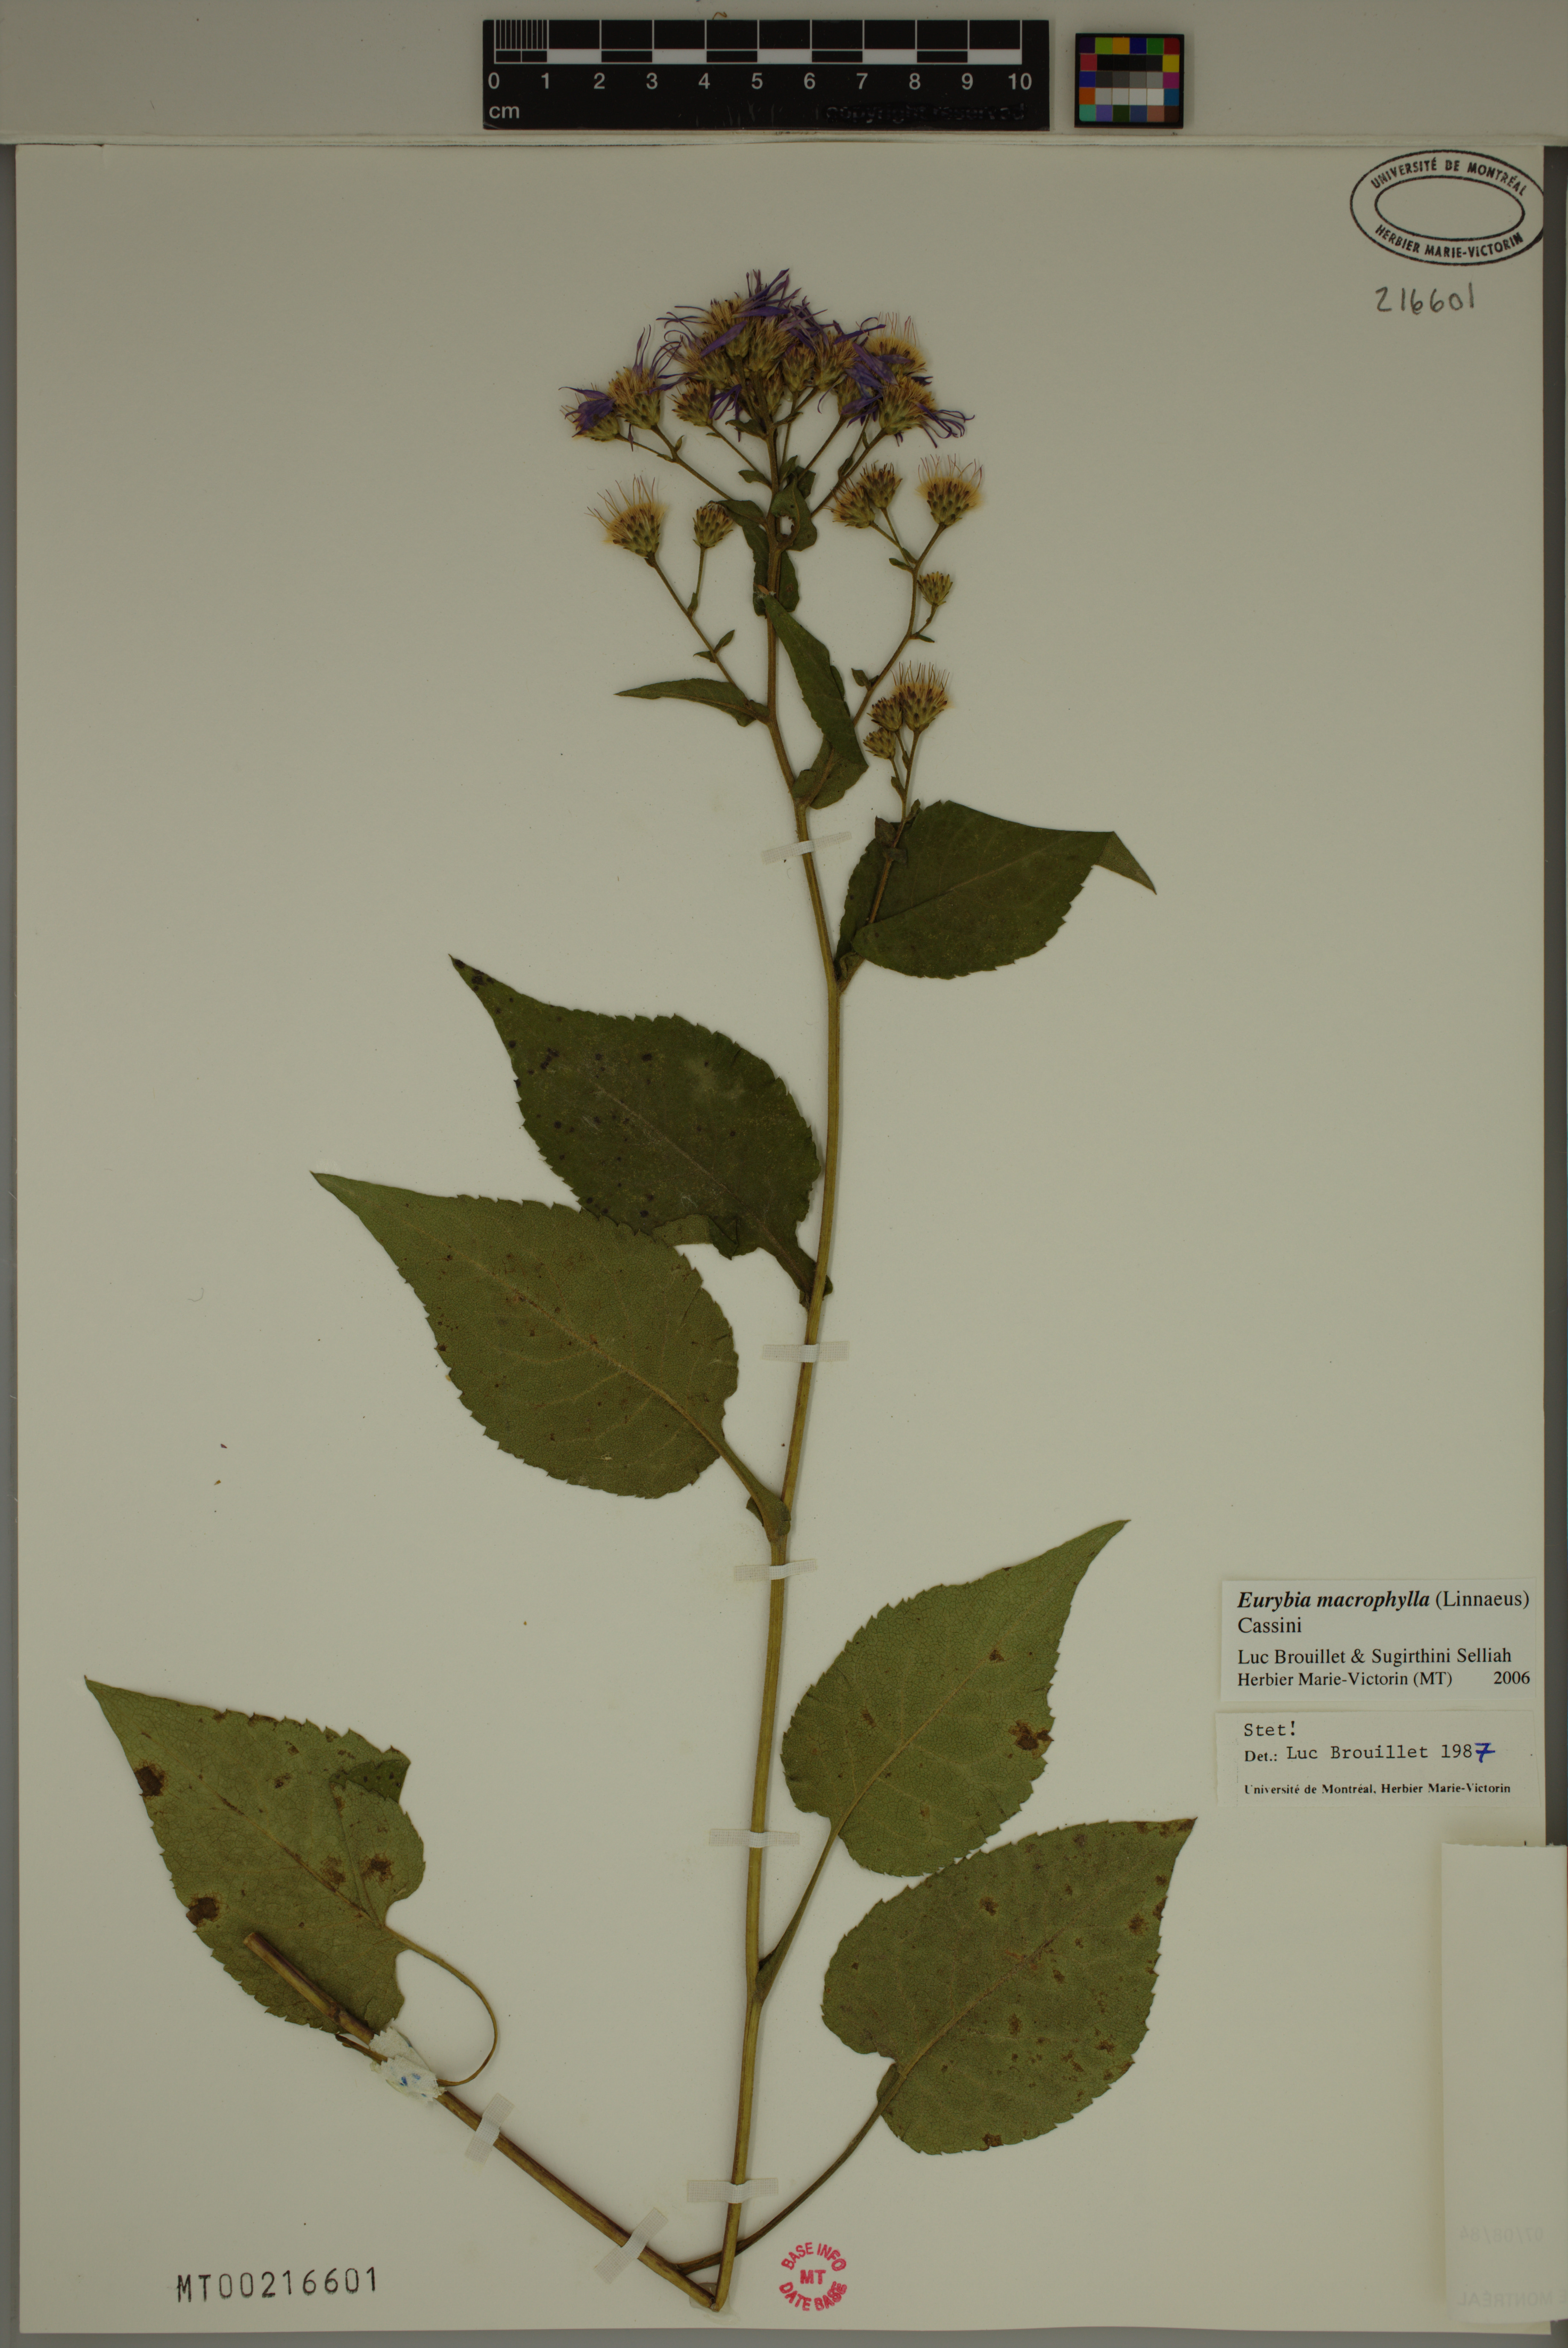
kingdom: Plantae
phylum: Tracheophyta
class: Magnoliopsida
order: Asterales
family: Asteraceae
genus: Eurybia
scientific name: Eurybia macrophylla
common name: Big-leaved aster
